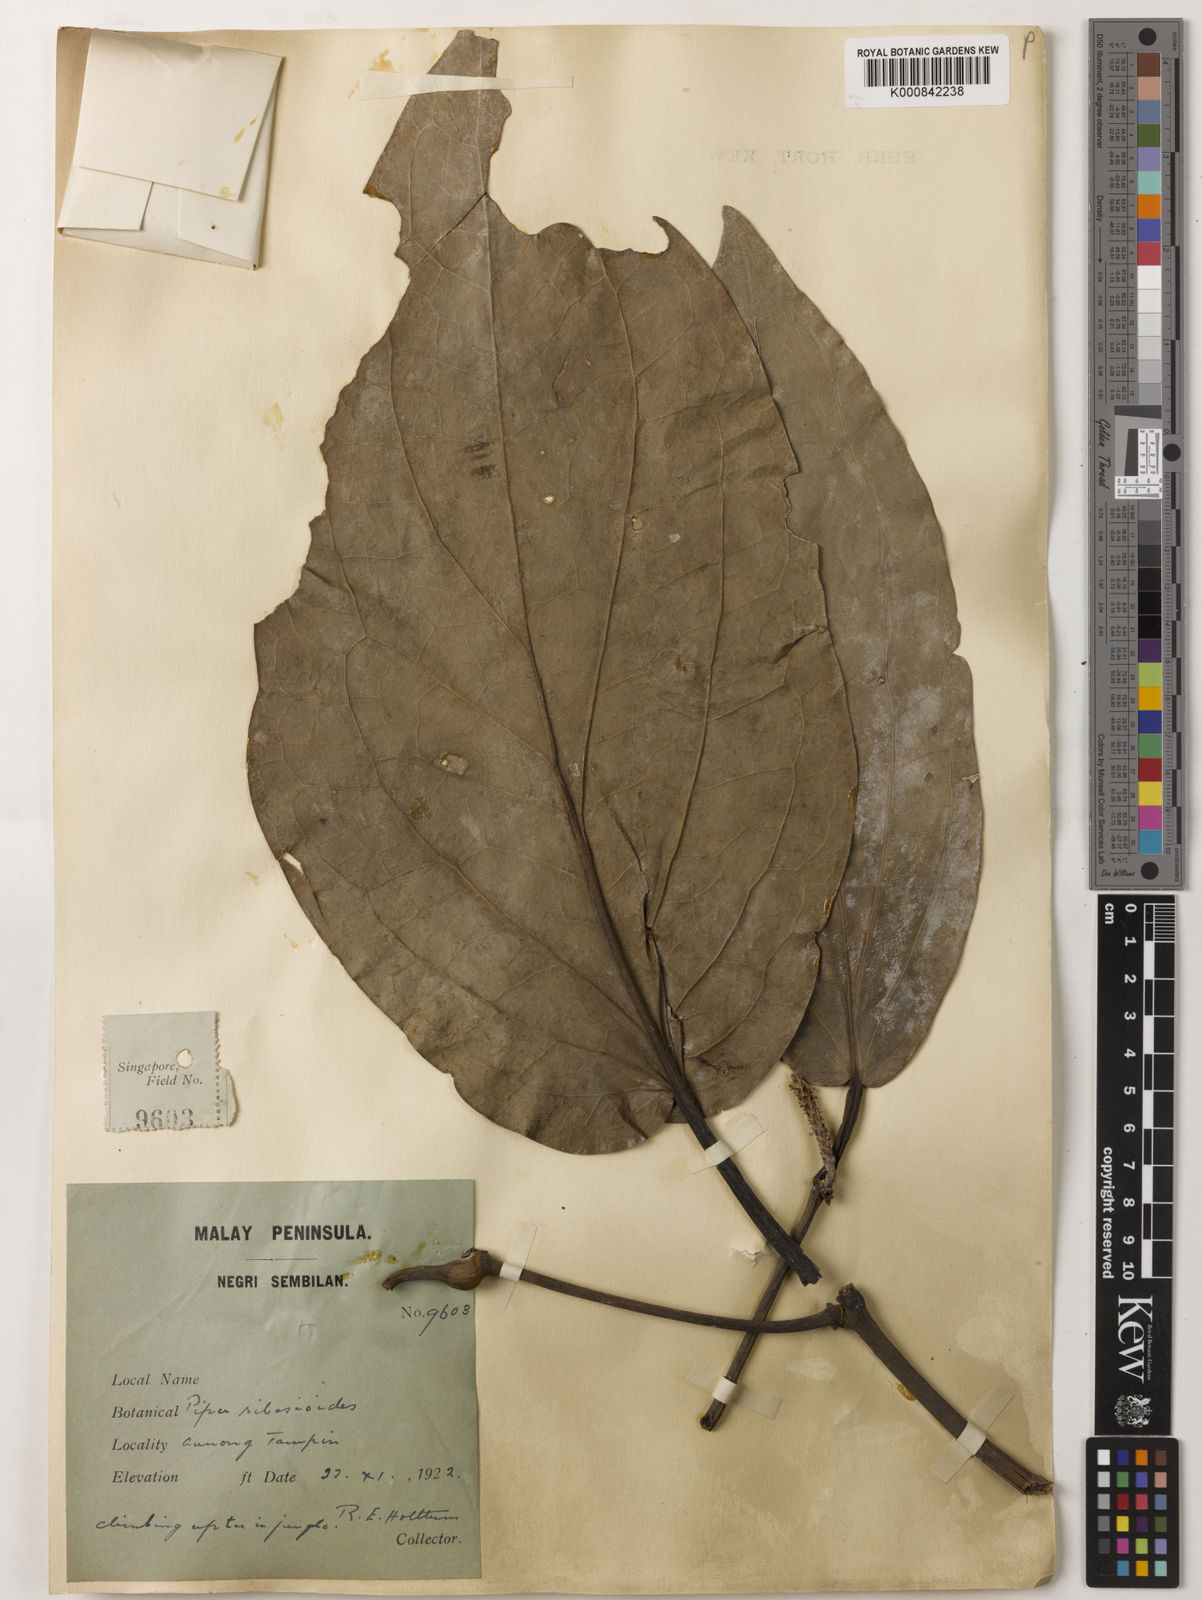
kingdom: Plantae
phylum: Tracheophyta
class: Magnoliopsida
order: Piperales
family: Piperaceae
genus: Piper
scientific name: Piper ribesioides
